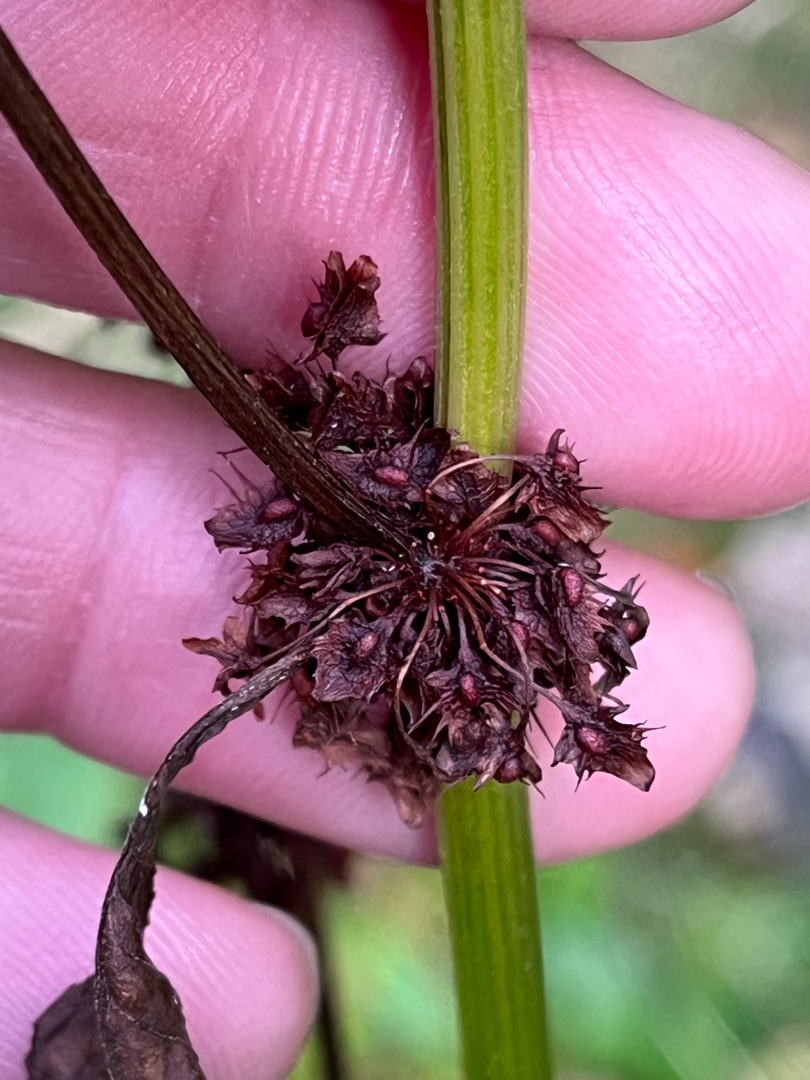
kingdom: Plantae
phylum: Tracheophyta
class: Magnoliopsida
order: Caryophyllales
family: Polygonaceae
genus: Rumex
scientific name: Rumex obtusifolius
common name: Butbladet skræppe
